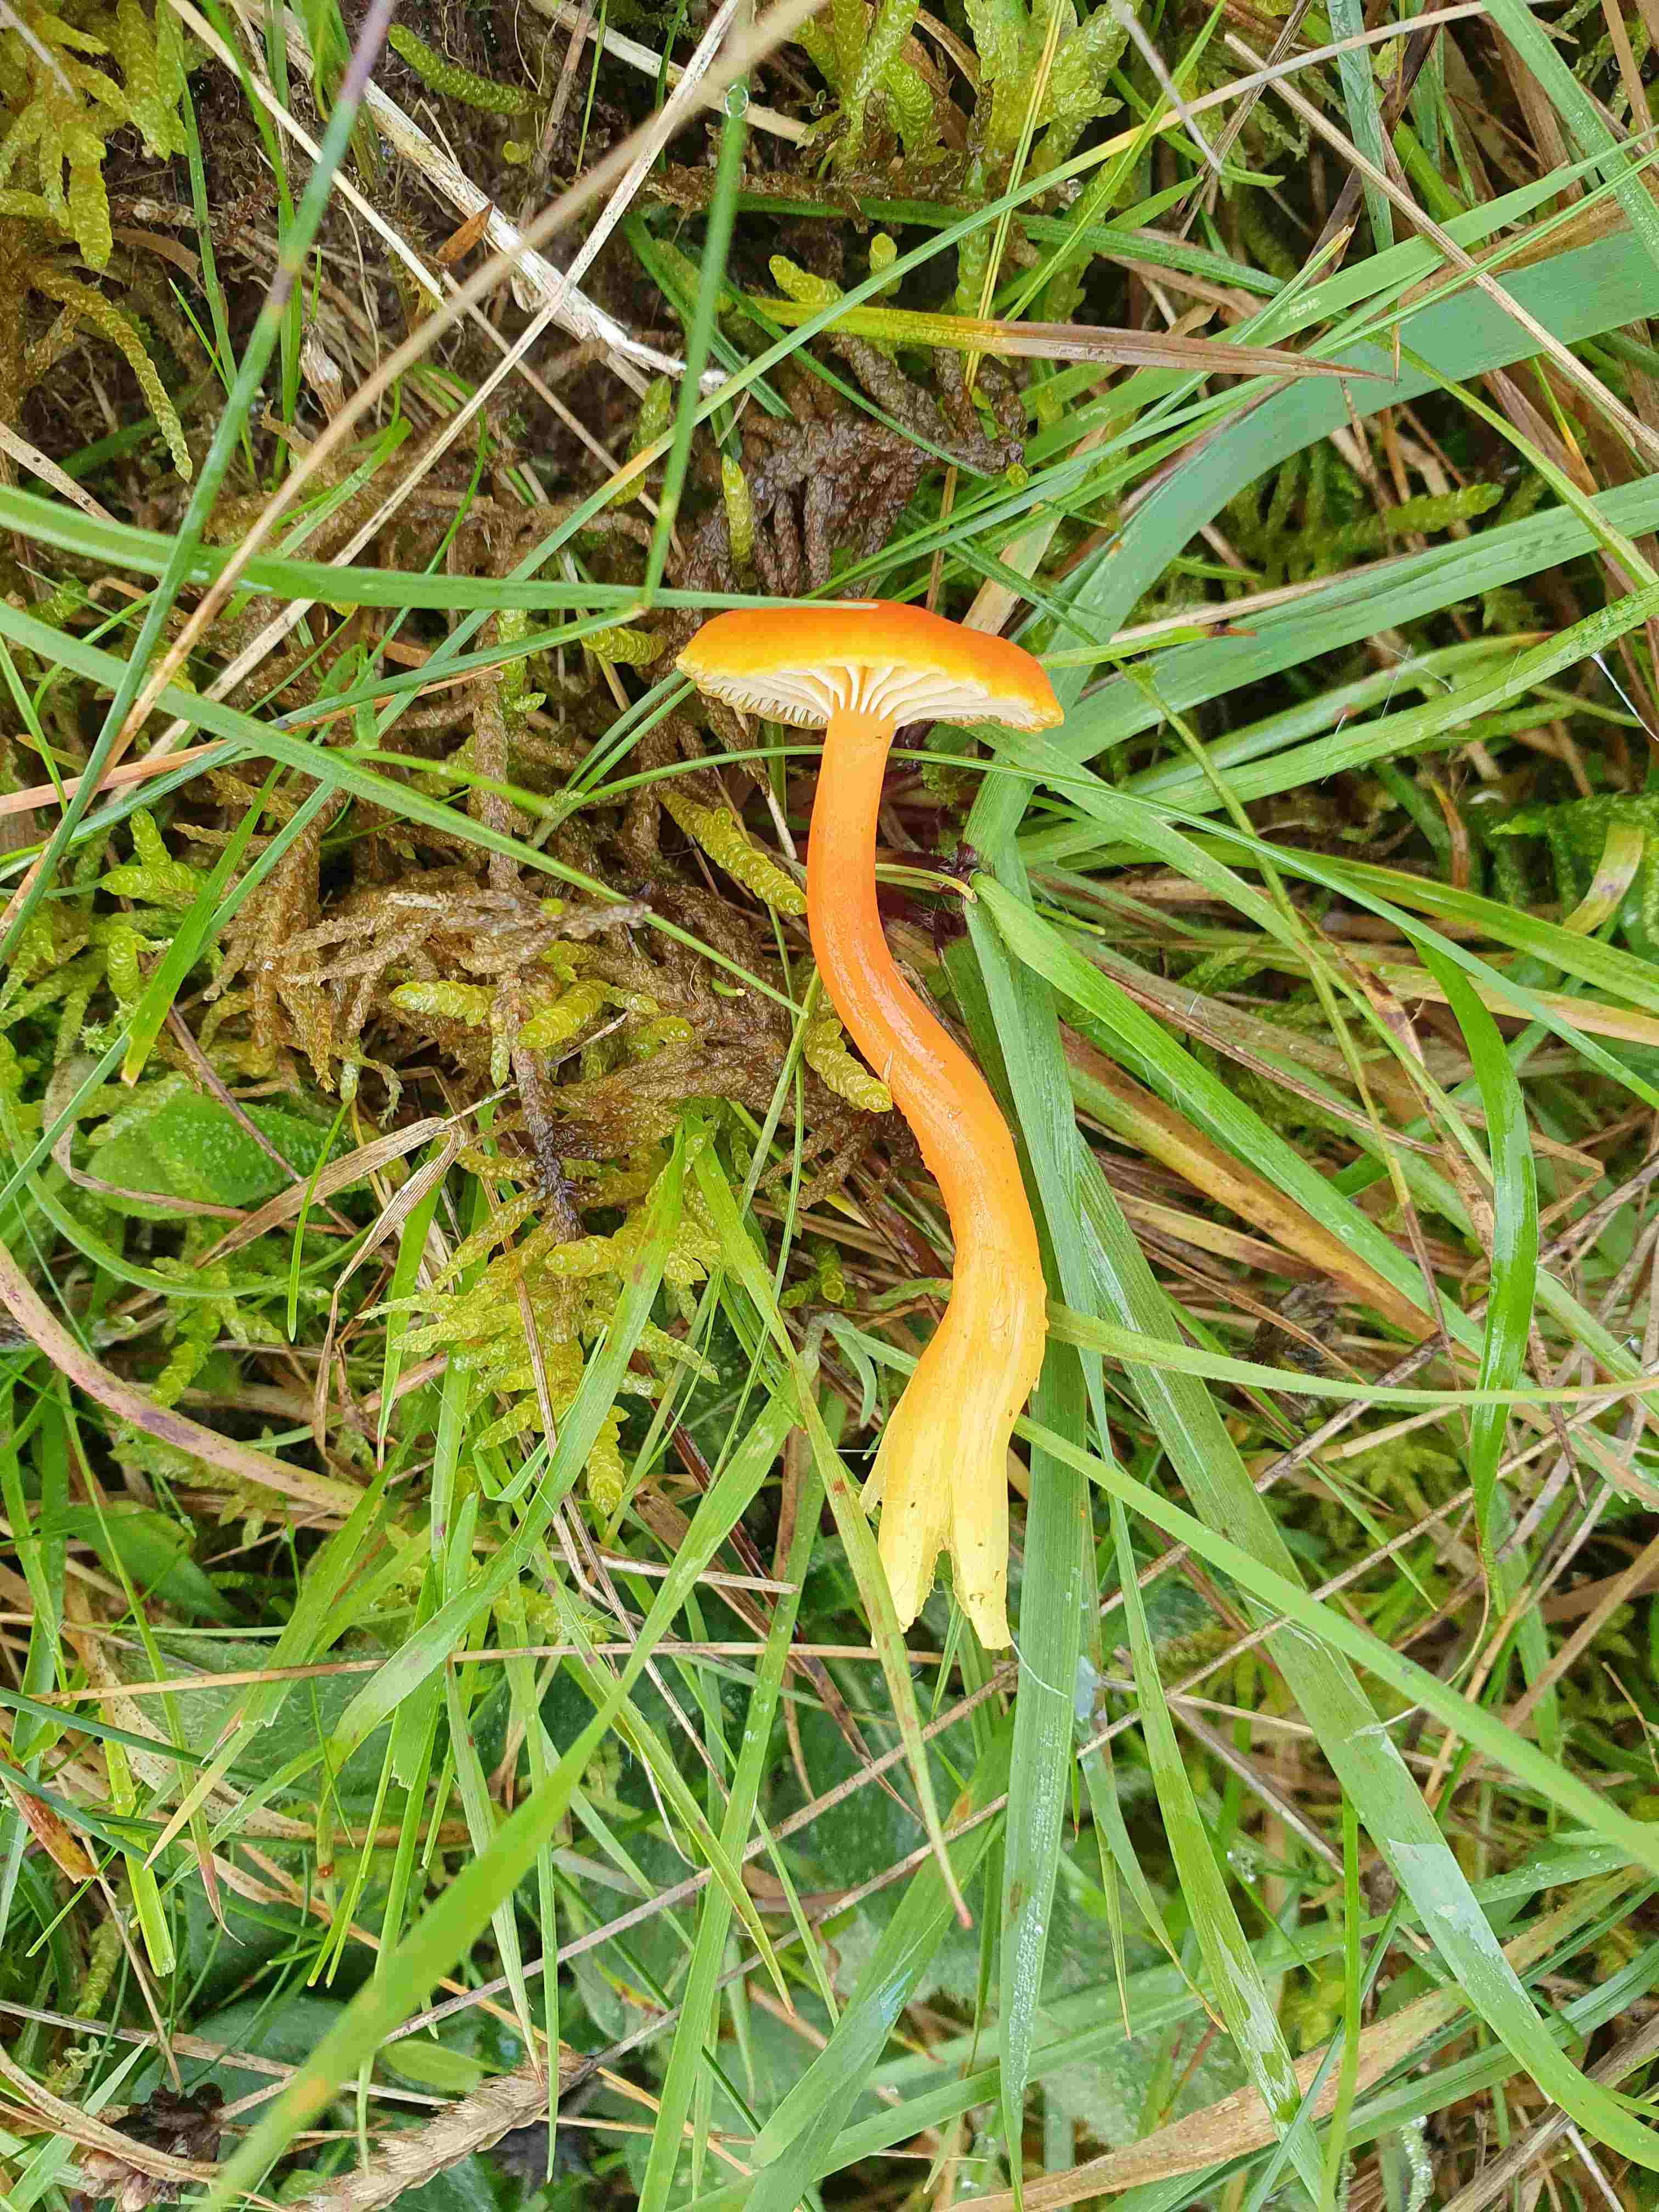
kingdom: Fungi
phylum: Basidiomycota
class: Agaricomycetes
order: Agaricales
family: Hygrophoraceae
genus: Hygrocybe
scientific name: Hygrocybe reidii
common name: honning-vokshat
